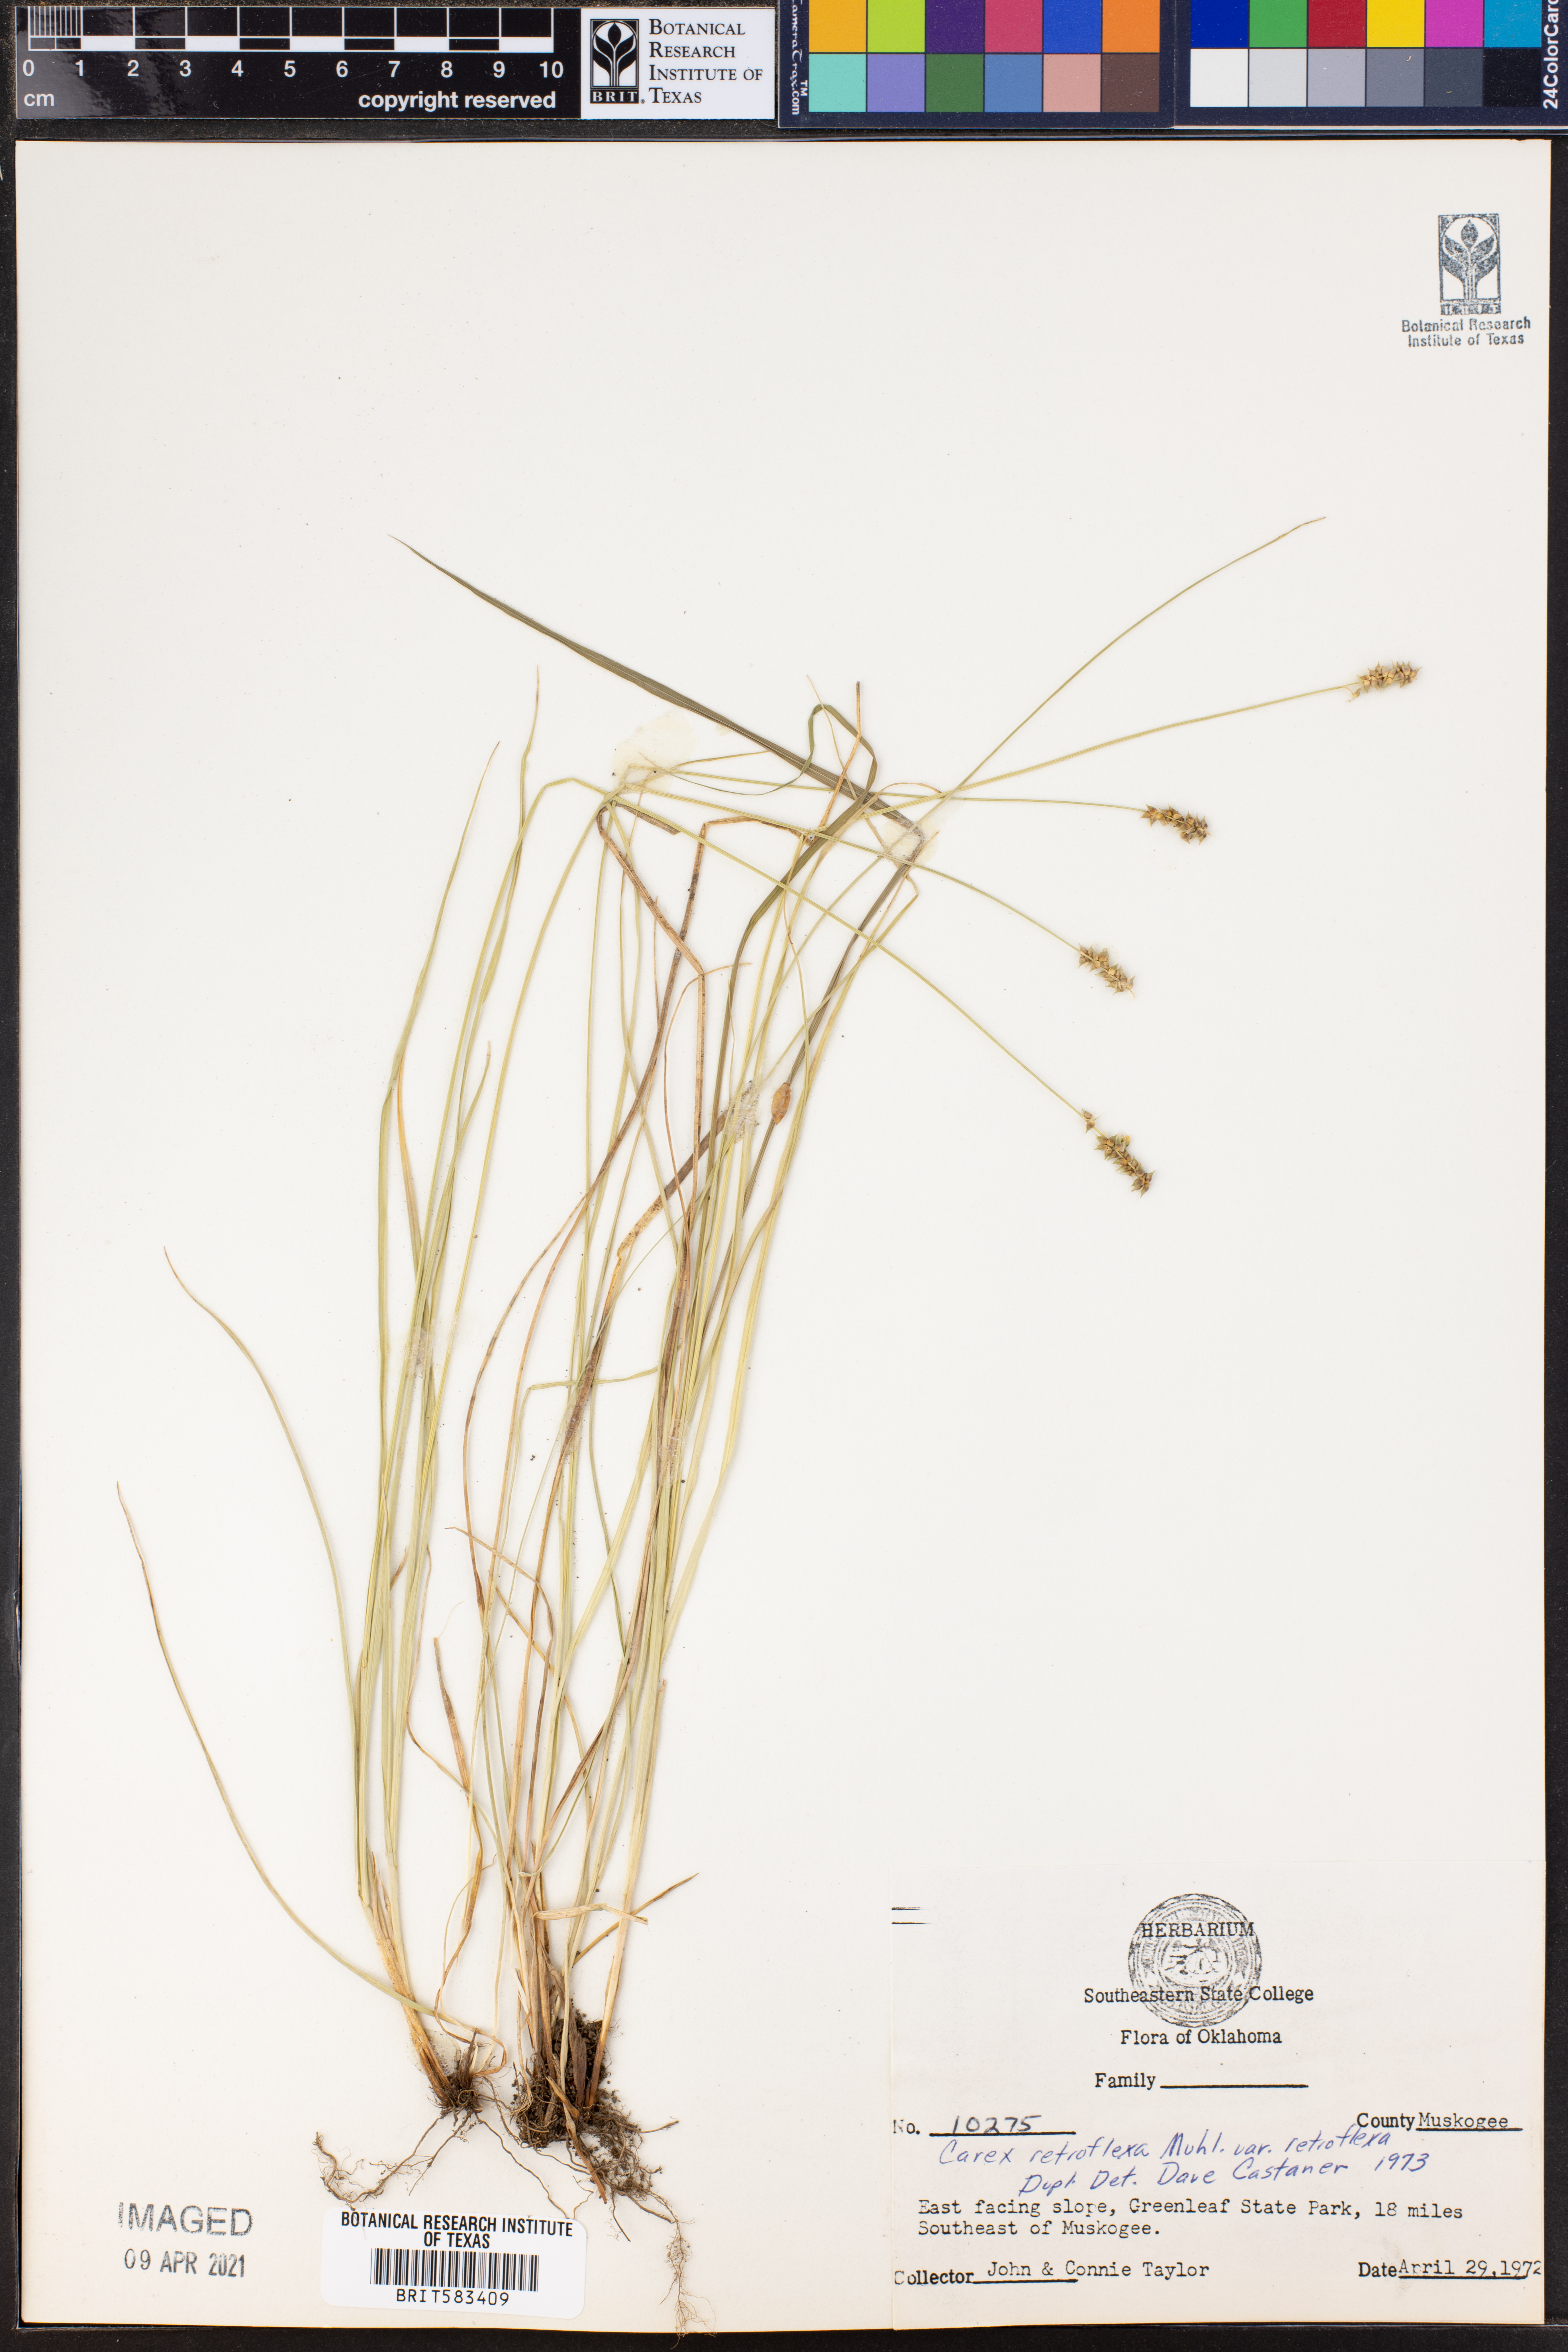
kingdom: Plantae
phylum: Tracheophyta
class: Liliopsida
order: Poales
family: Cyperaceae
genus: Carex
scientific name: Carex retroflexa
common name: Reflexed sedge
